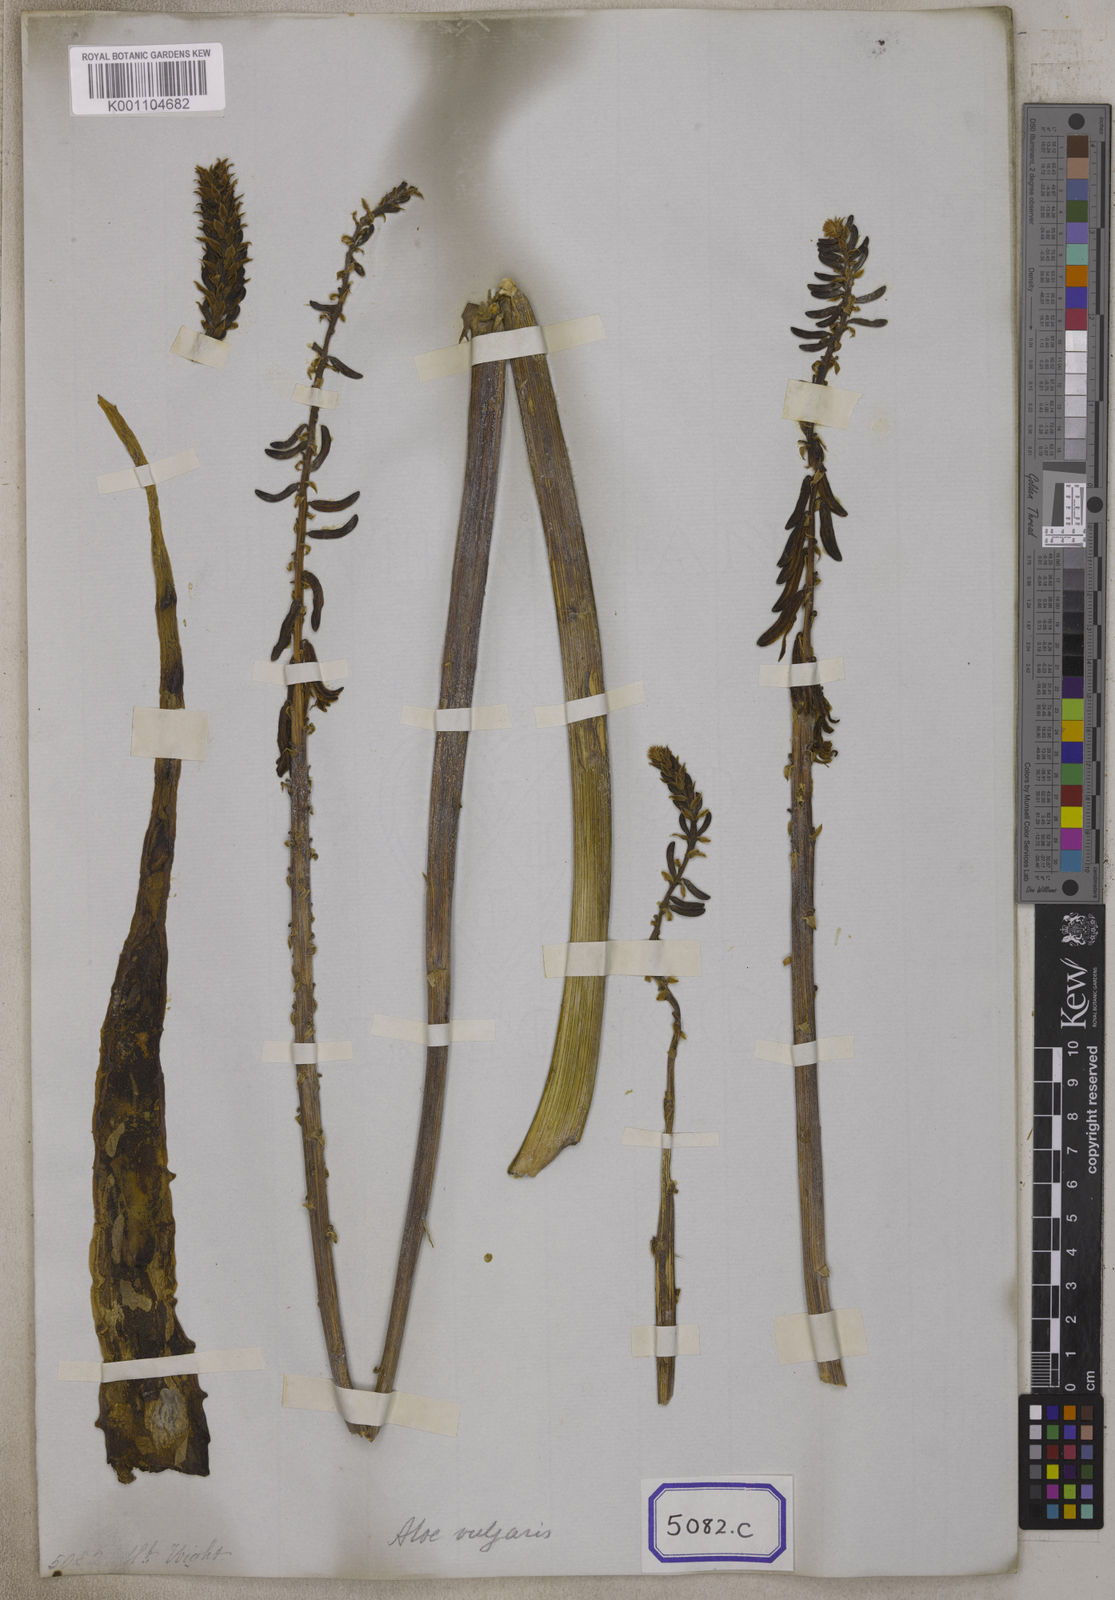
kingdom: Plantae
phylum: Tracheophyta
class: Liliopsida
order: Asparagales
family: Asparagaceae
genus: Drimia
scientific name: Drimia indica
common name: Indian-squill
